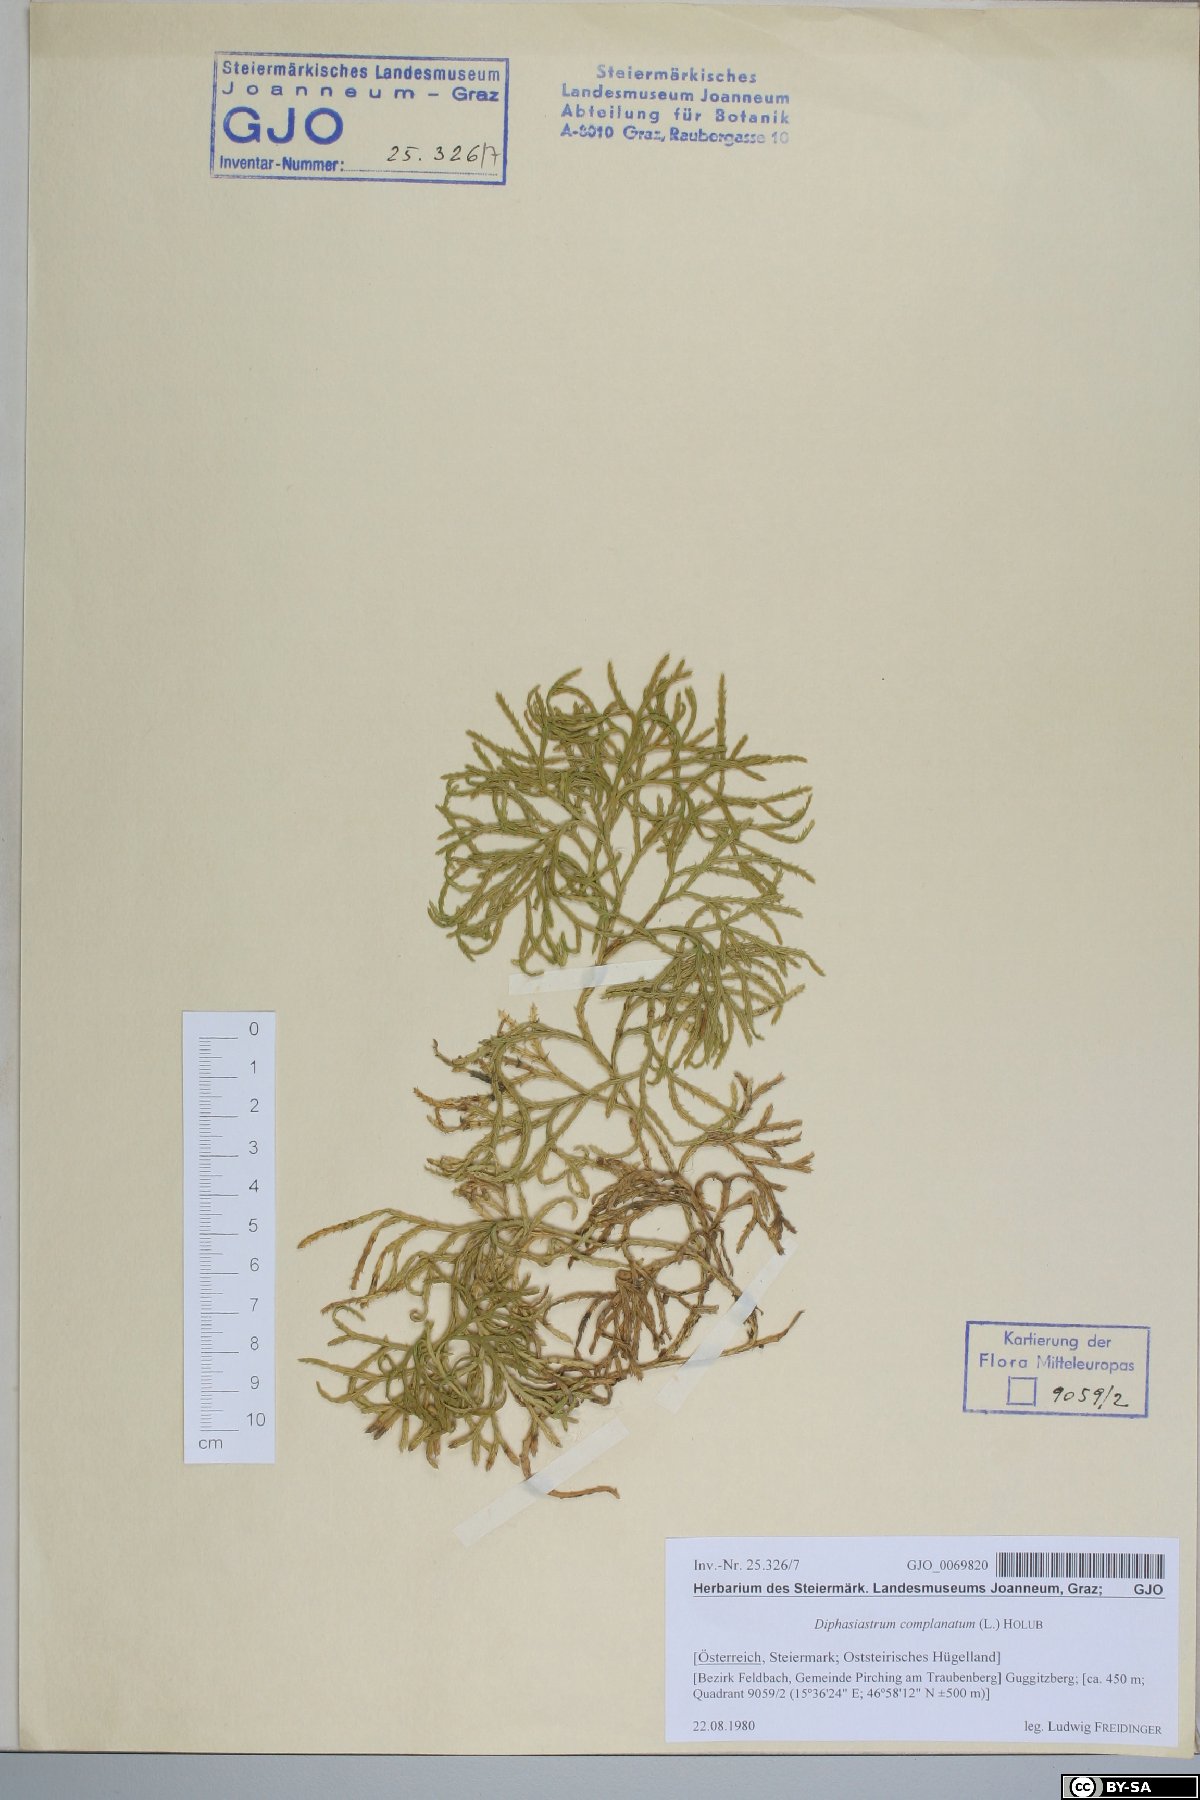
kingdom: Plantae
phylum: Tracheophyta
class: Lycopodiopsida
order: Lycopodiales
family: Lycopodiaceae
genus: Diphasiastrum
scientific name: Diphasiastrum complanatum
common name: Northern running-pine
